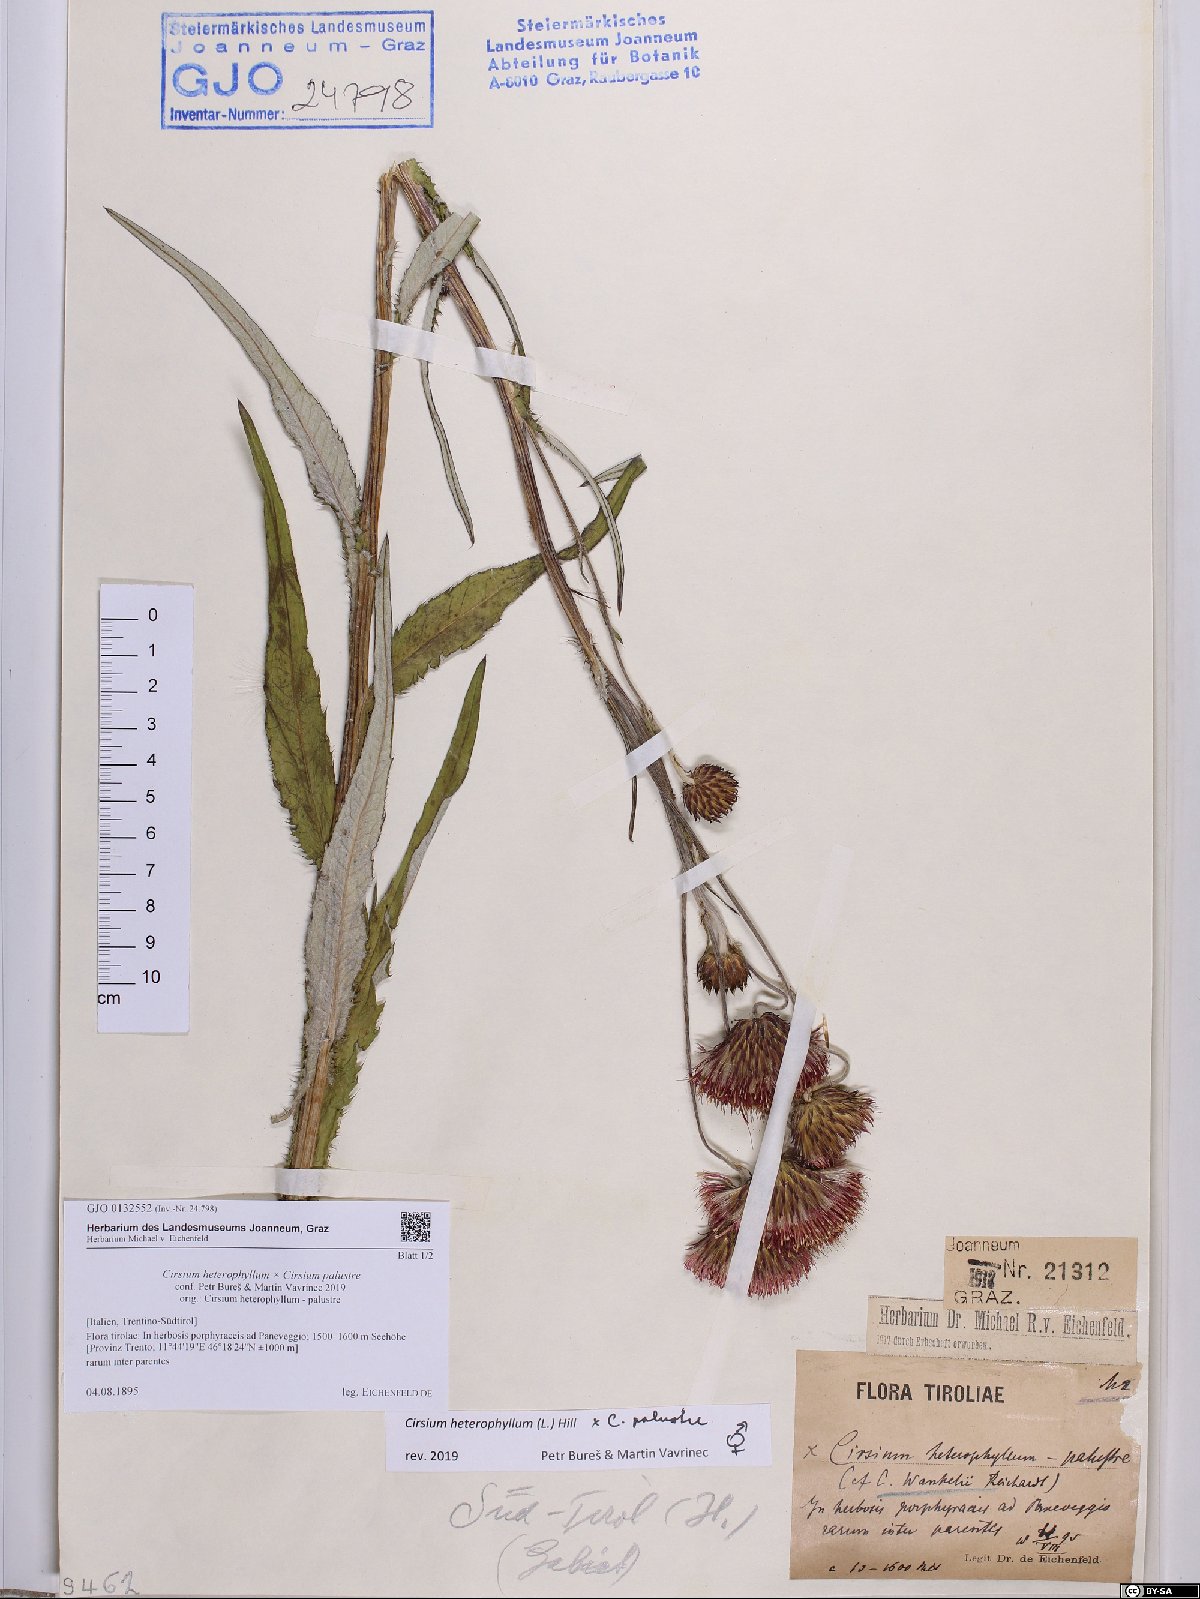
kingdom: Plantae
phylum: Tracheophyta
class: Magnoliopsida
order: Asterales
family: Asteraceae
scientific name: Asteraceae
